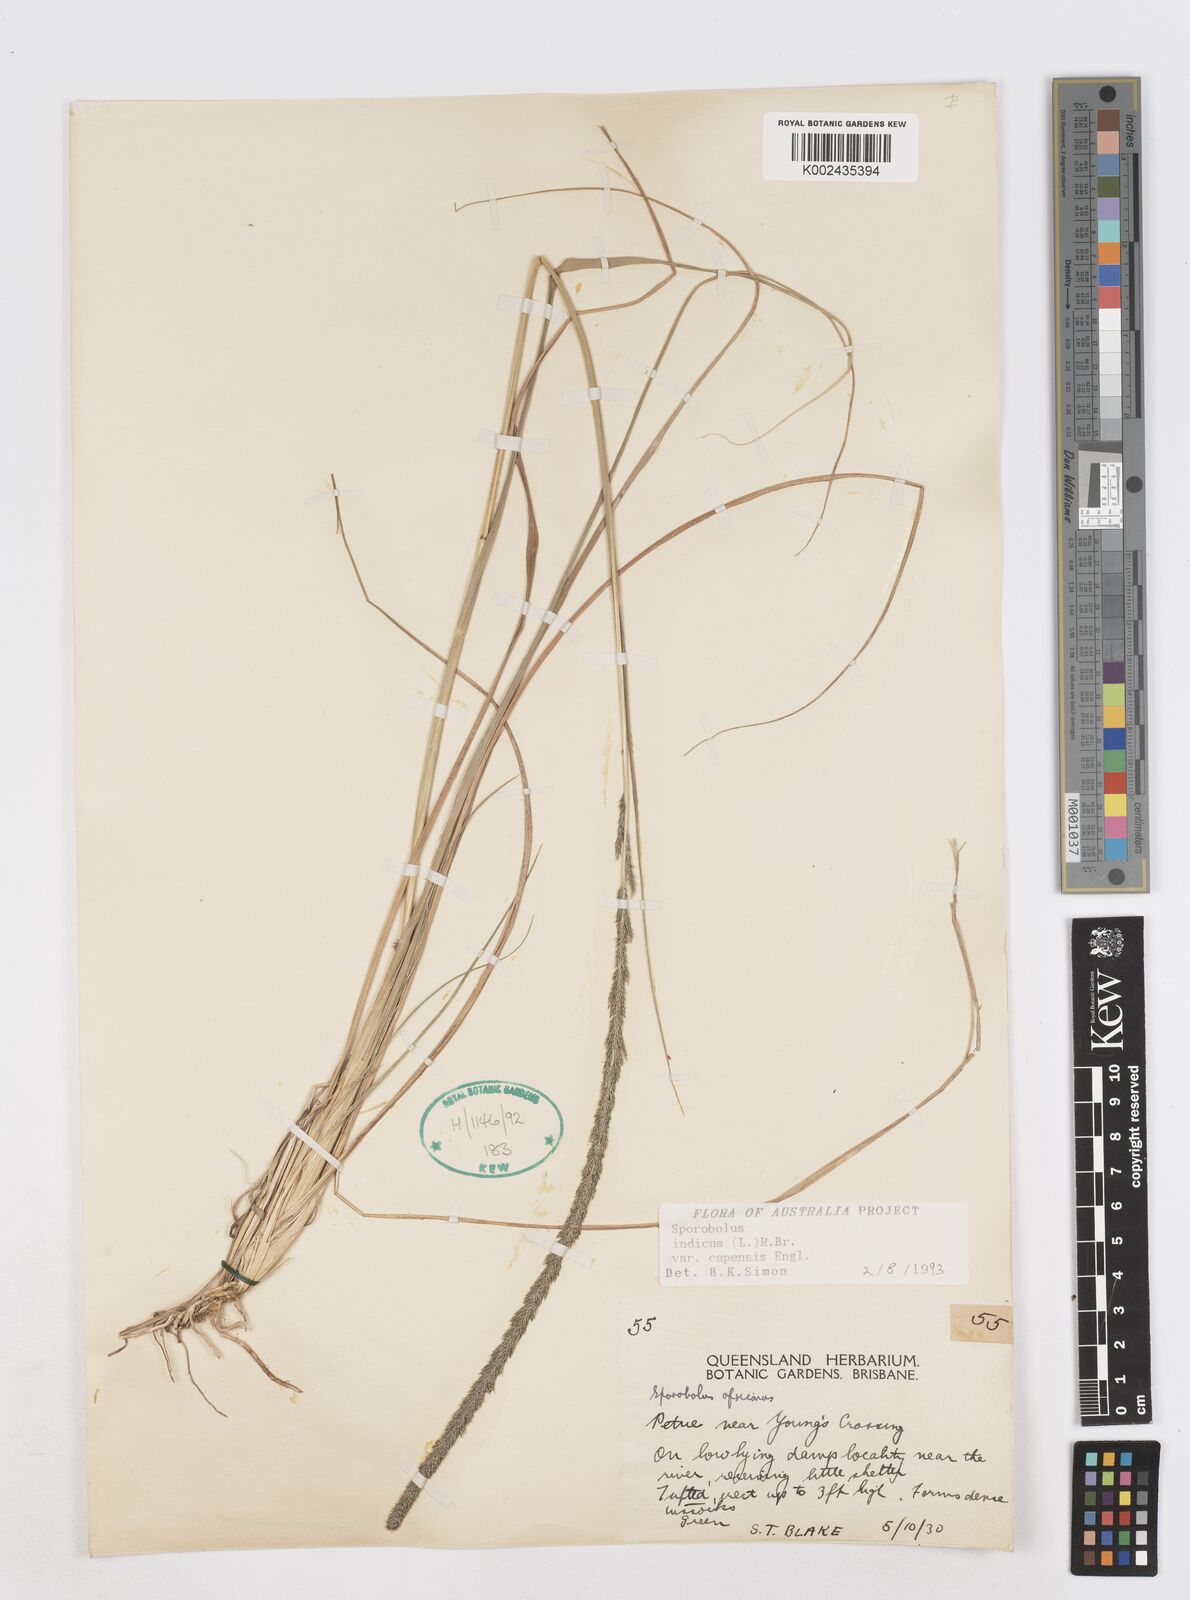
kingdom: Plantae
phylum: Tracheophyta
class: Liliopsida
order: Poales
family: Poaceae
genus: Sporobolus
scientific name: Sporobolus africanus
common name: African dropseed
